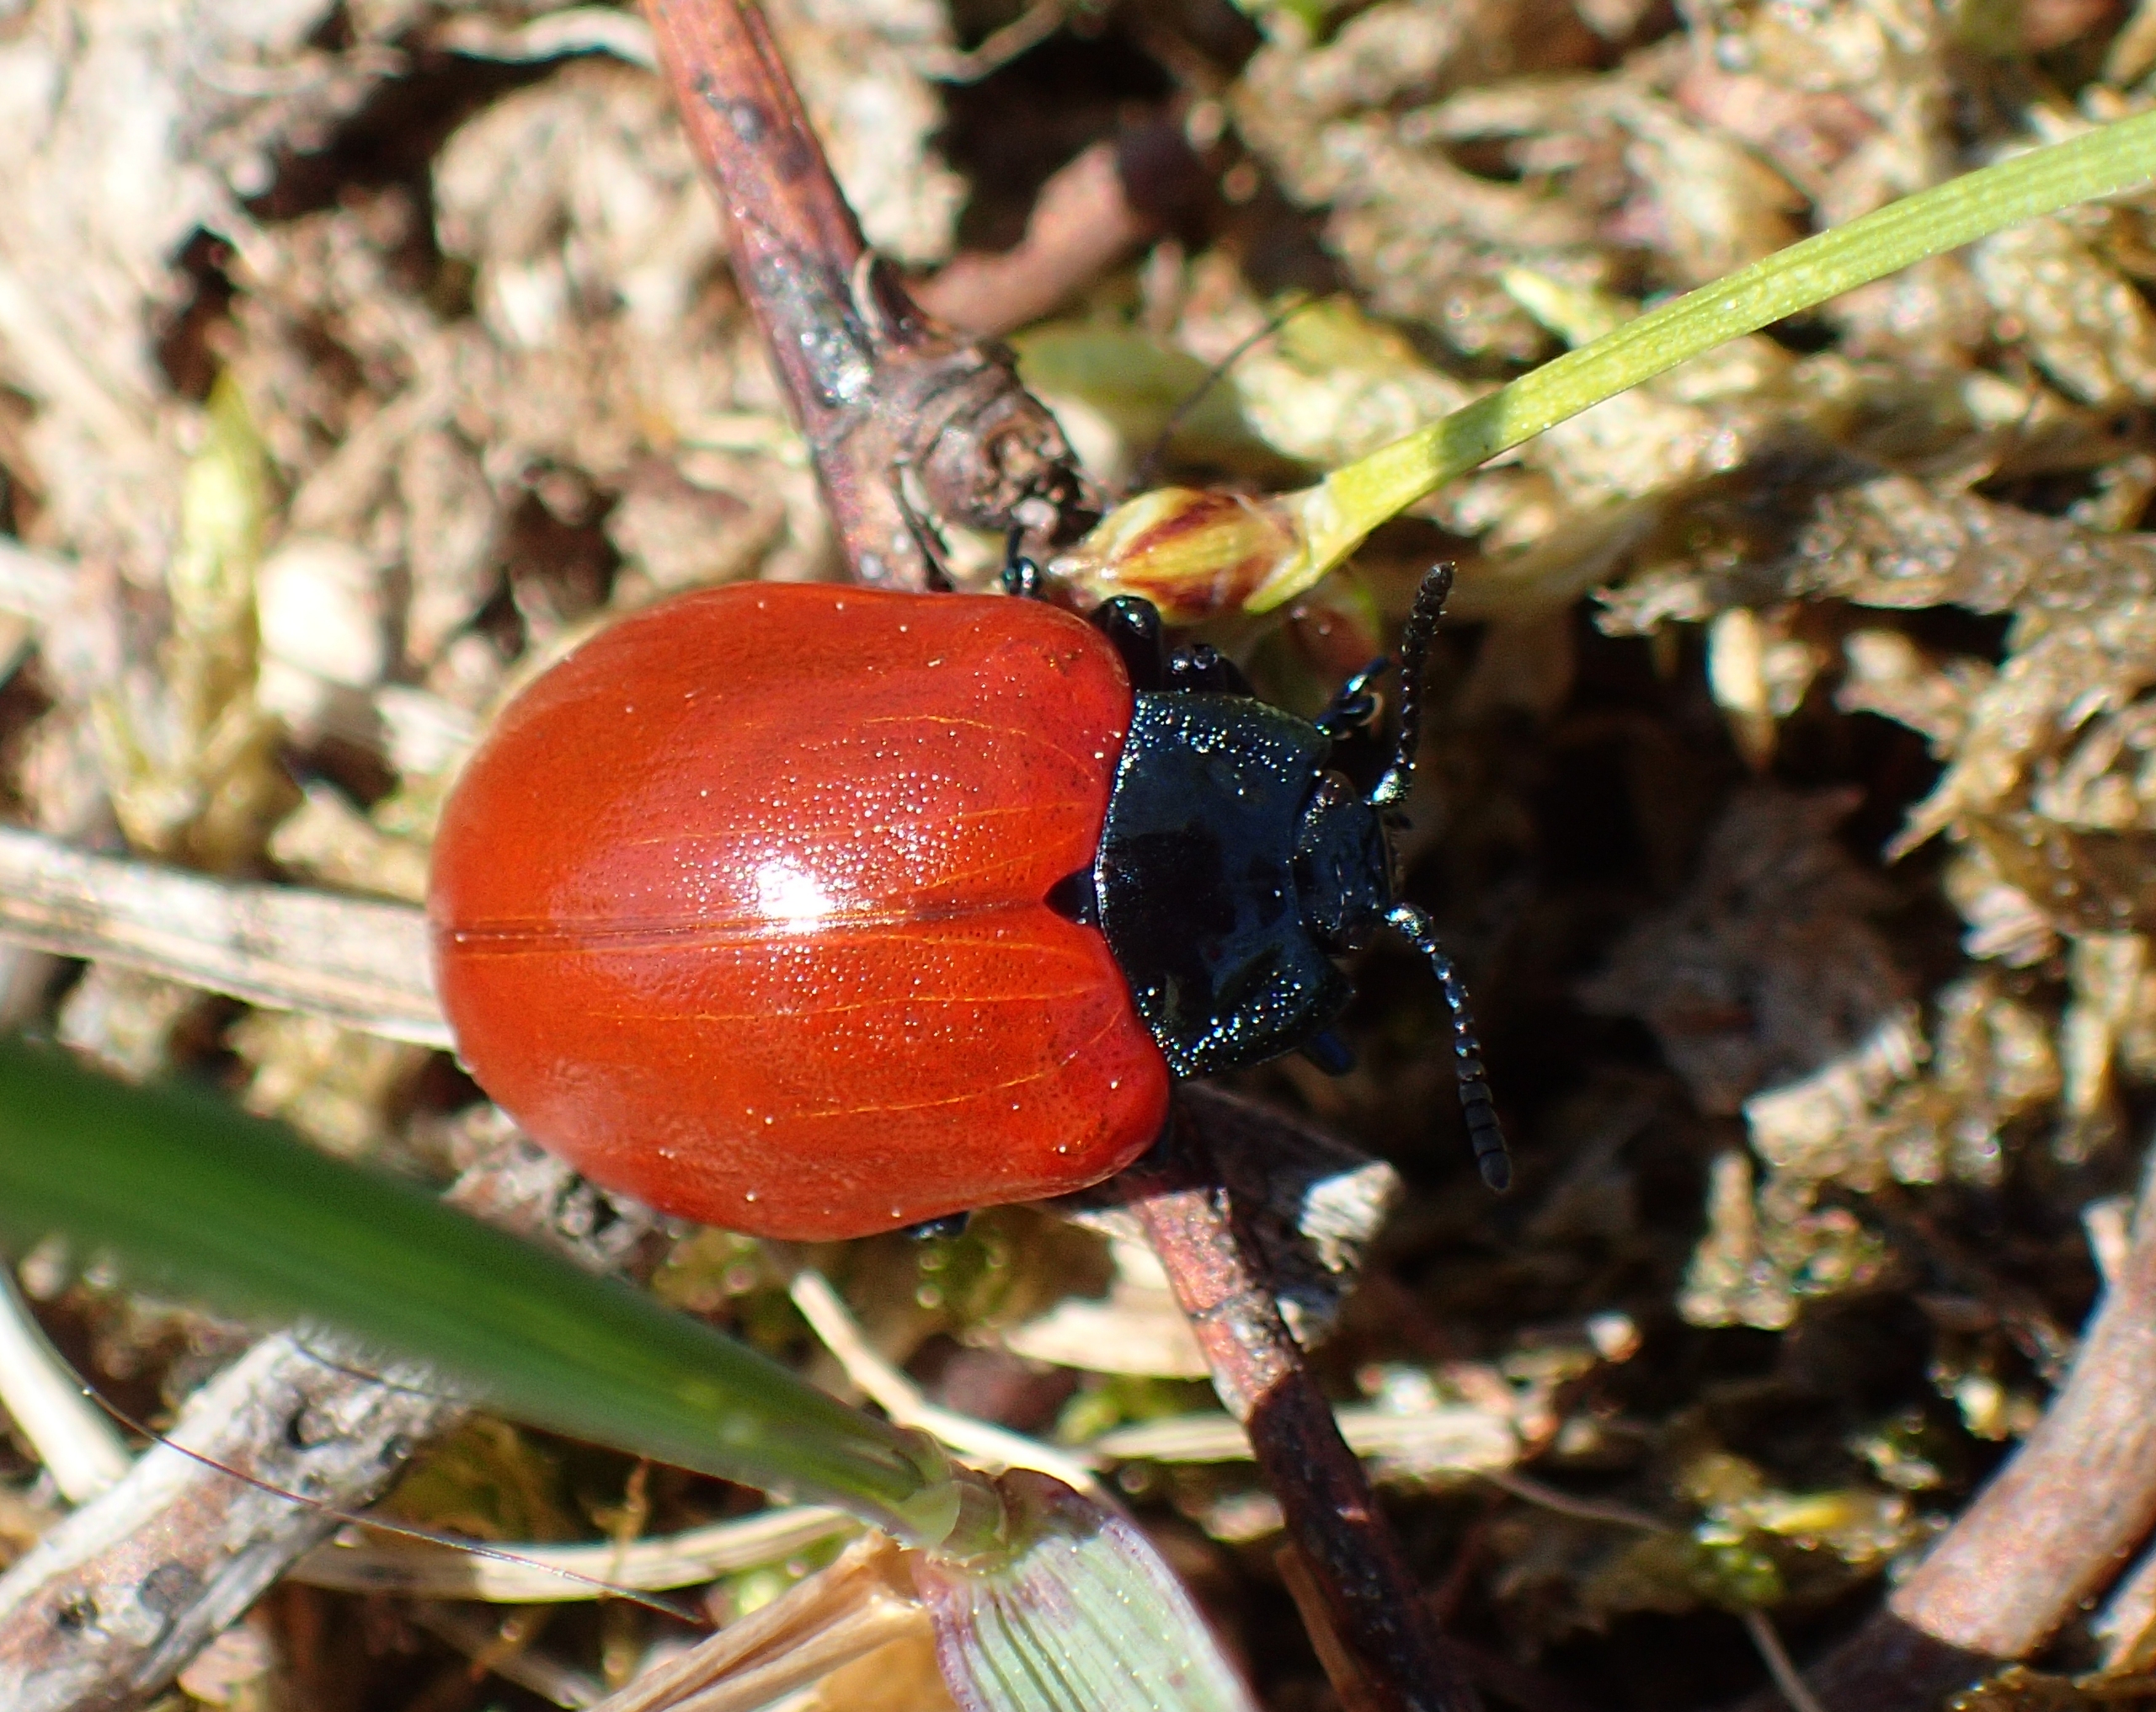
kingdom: Animalia
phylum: Arthropoda
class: Insecta
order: Coleoptera
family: Chrysomelidae
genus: Chrysomela
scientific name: Chrysomela populi
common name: Poppelbladbille
